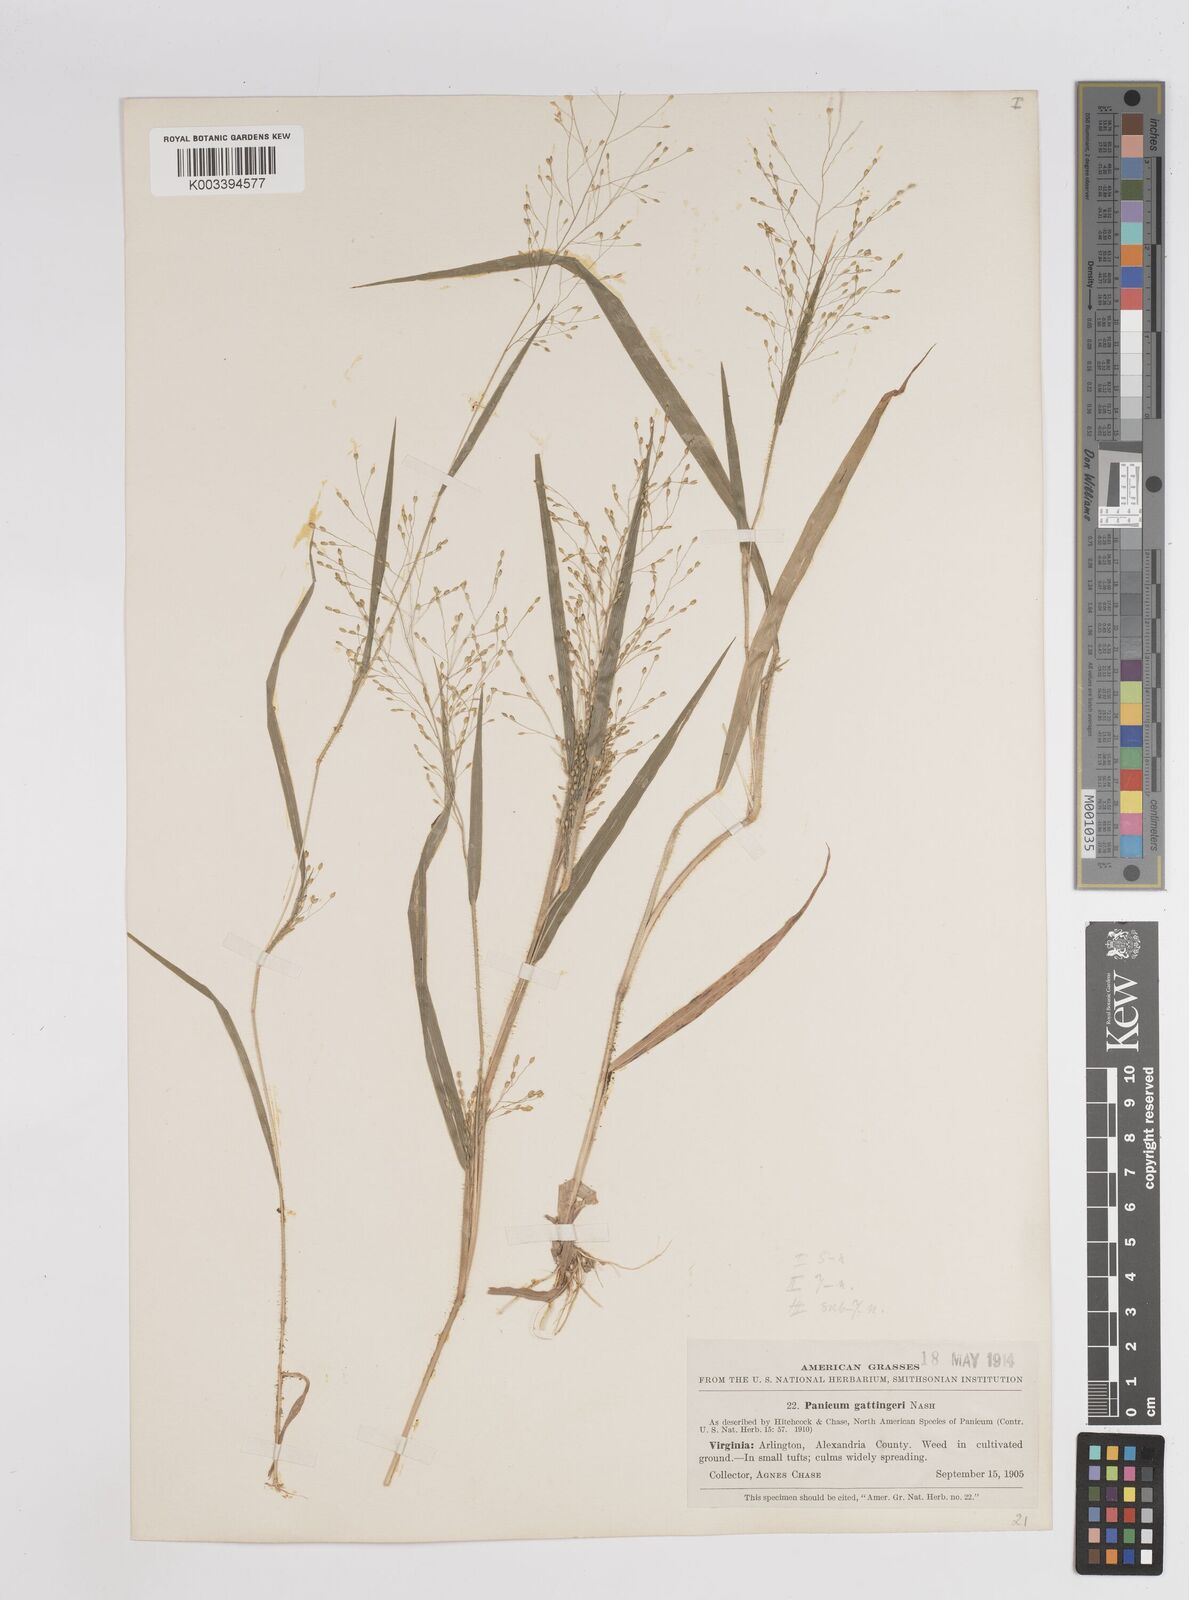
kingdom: Plantae
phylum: Tracheophyta
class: Liliopsida
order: Poales
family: Poaceae
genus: Panicum
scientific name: Panicum gattingeri
